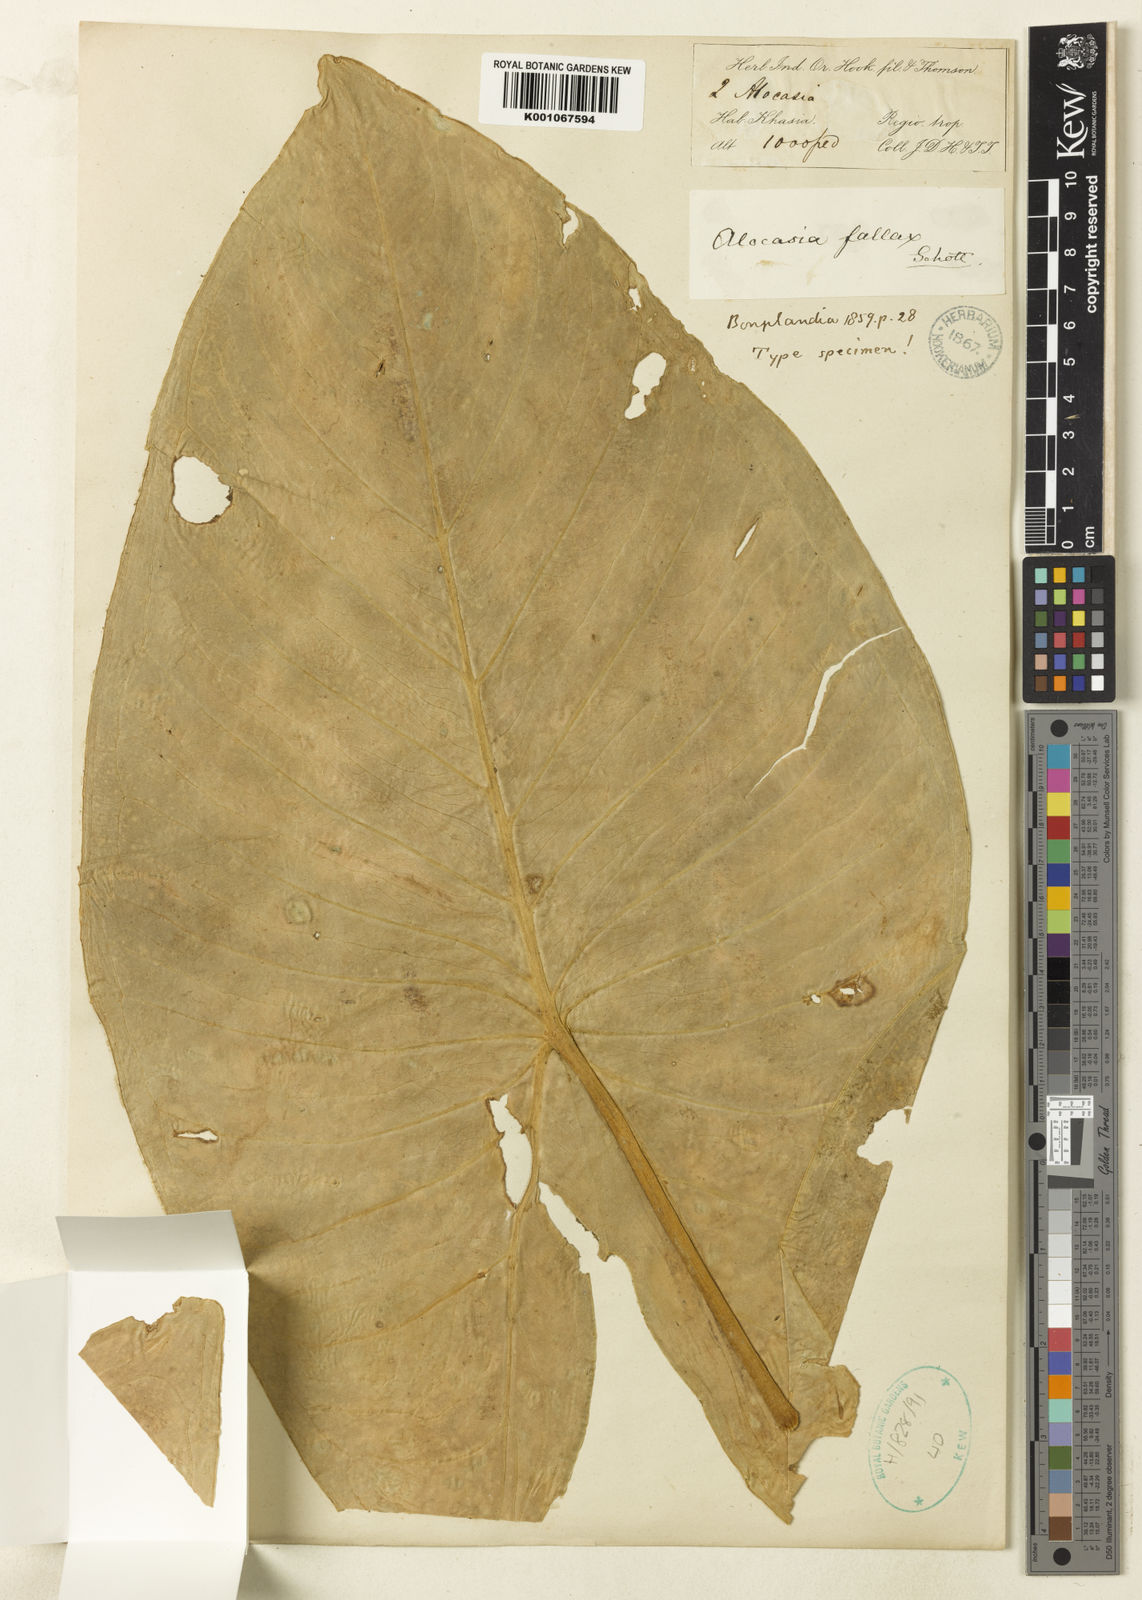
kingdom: Plantae
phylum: Tracheophyta
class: Liliopsida
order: Alismatales
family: Araceae
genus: Alocasia
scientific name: Alocasia fallax
